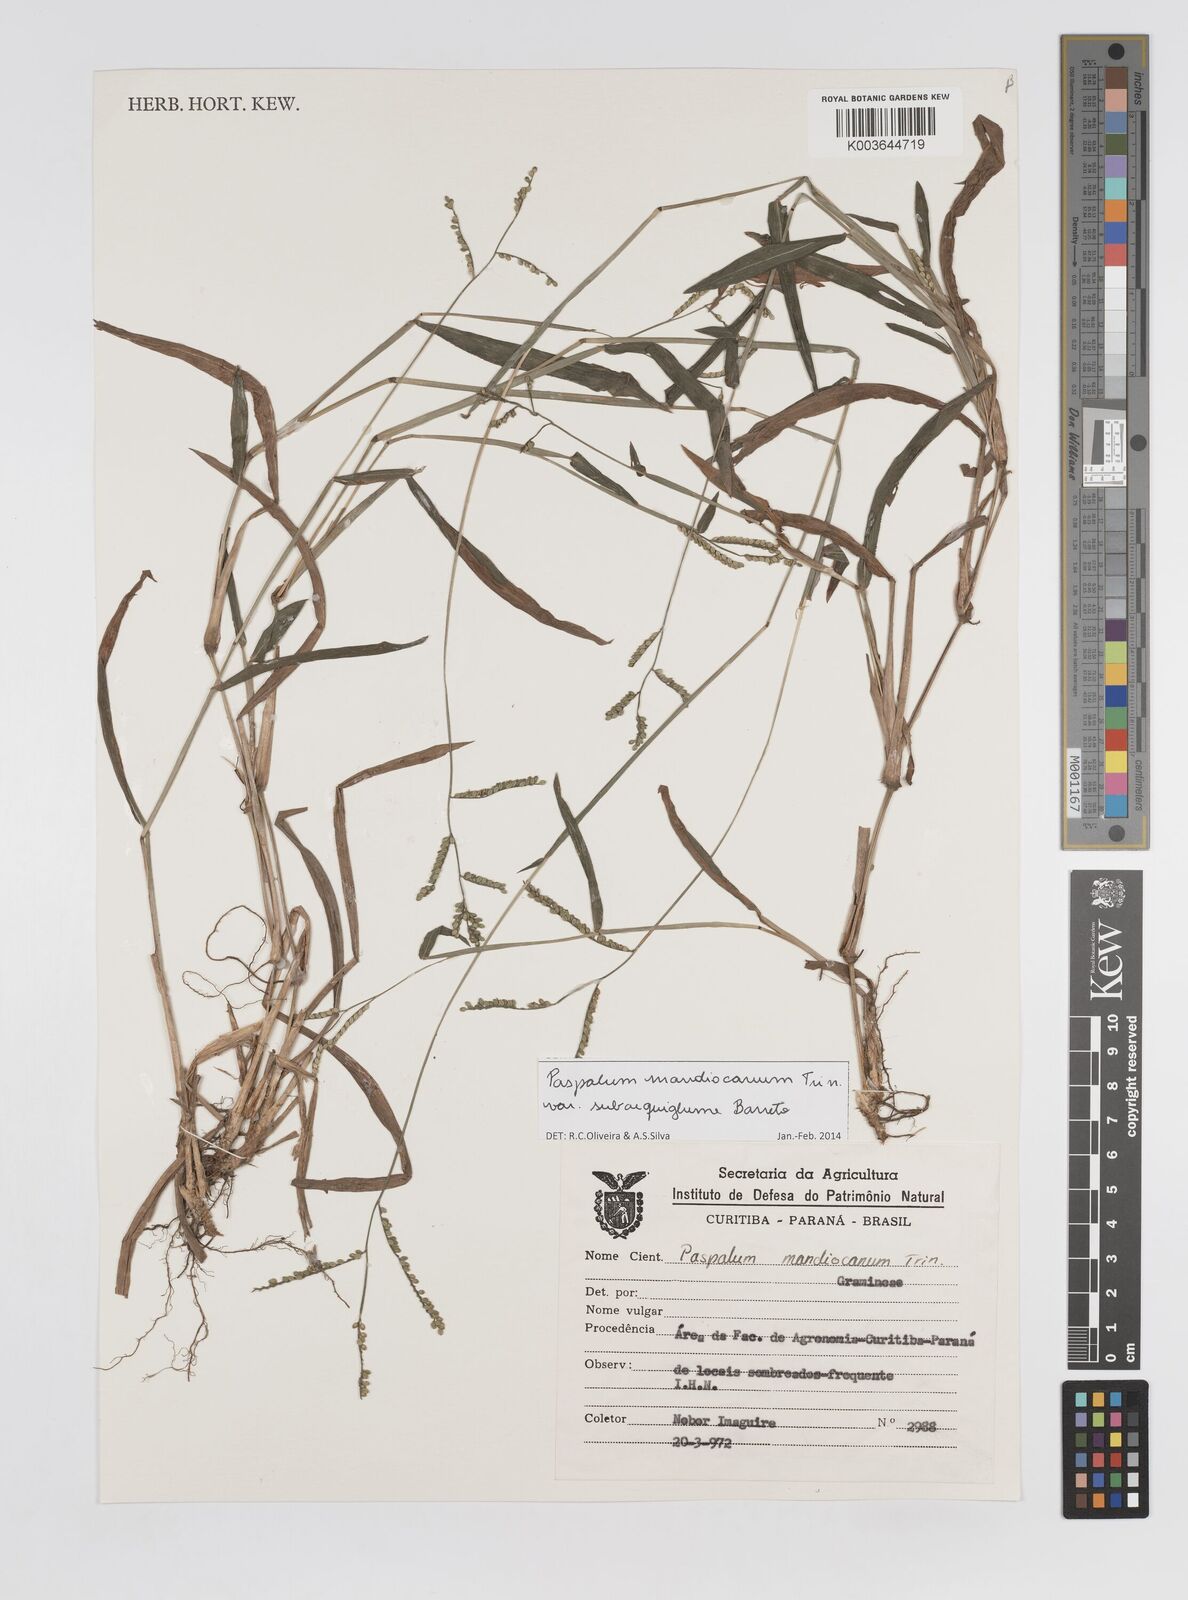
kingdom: Plantae
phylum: Tracheophyta
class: Liliopsida
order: Poales
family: Poaceae
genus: Paspalum
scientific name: Paspalum mandiocanum
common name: Paspalum
